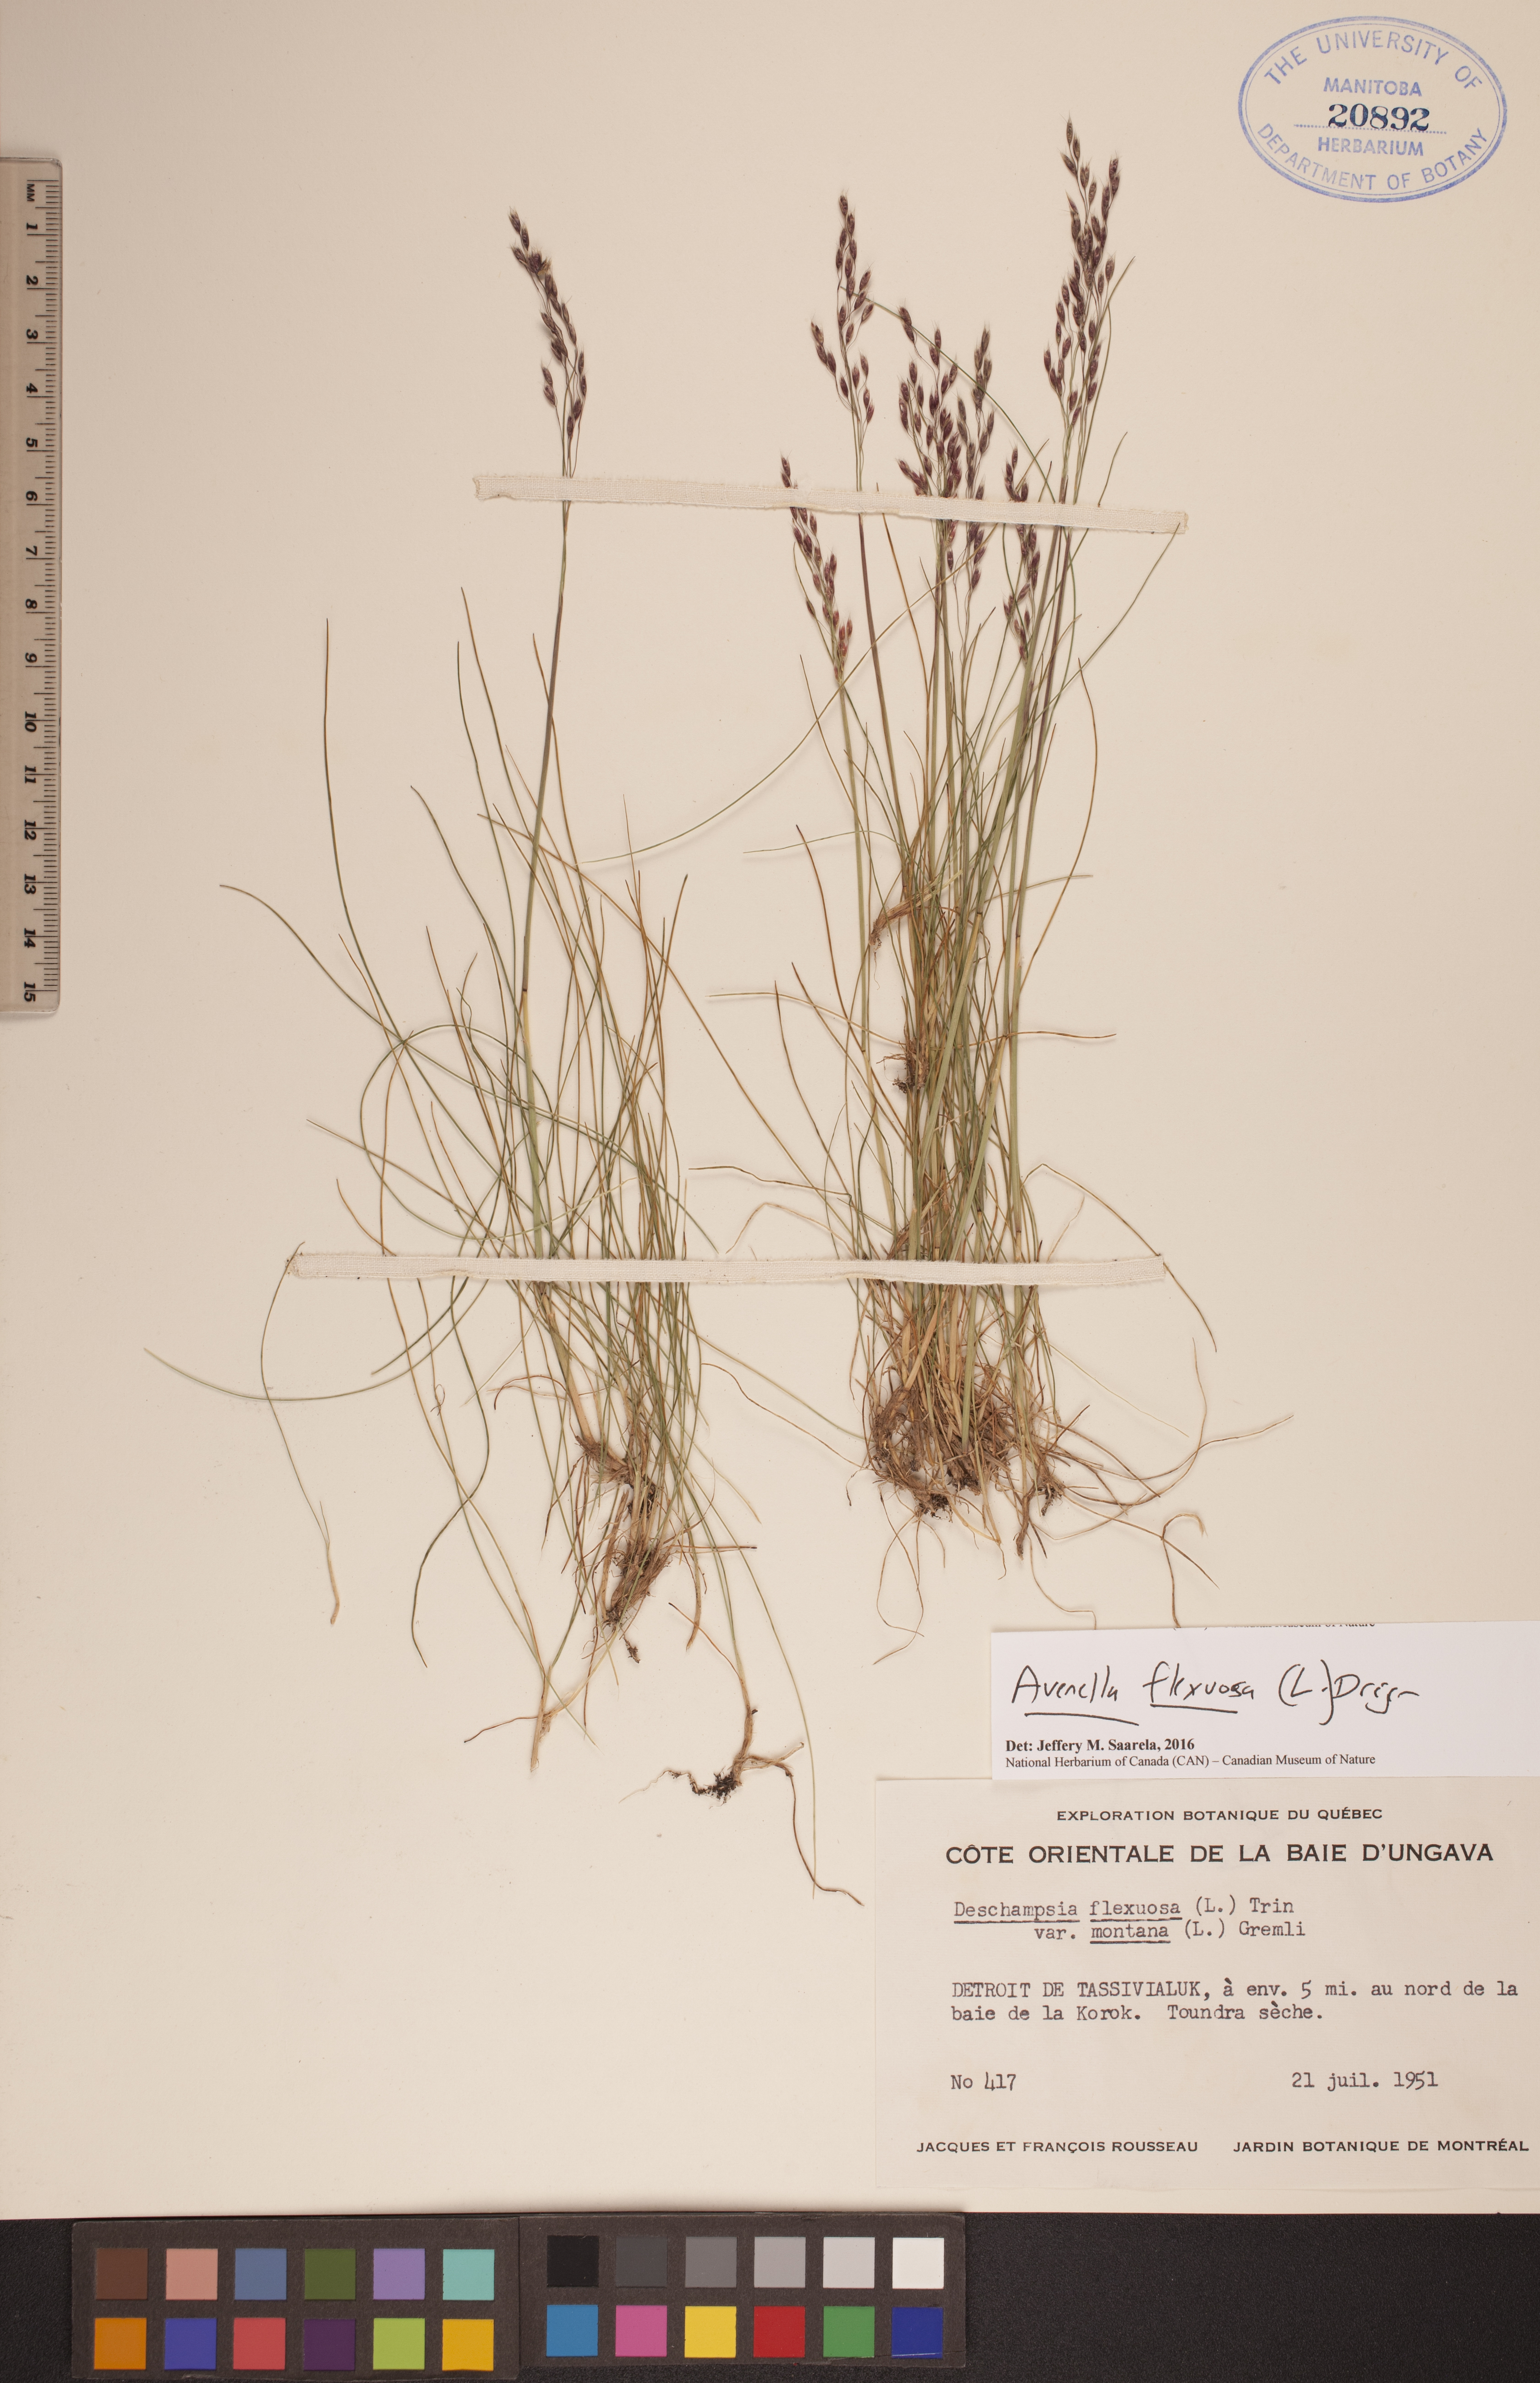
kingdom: Plantae
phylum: Tracheophyta
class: Liliopsida
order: Poales
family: Poaceae
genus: Avenella
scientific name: Avenella flexuosa
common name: Wavy hairgrass
